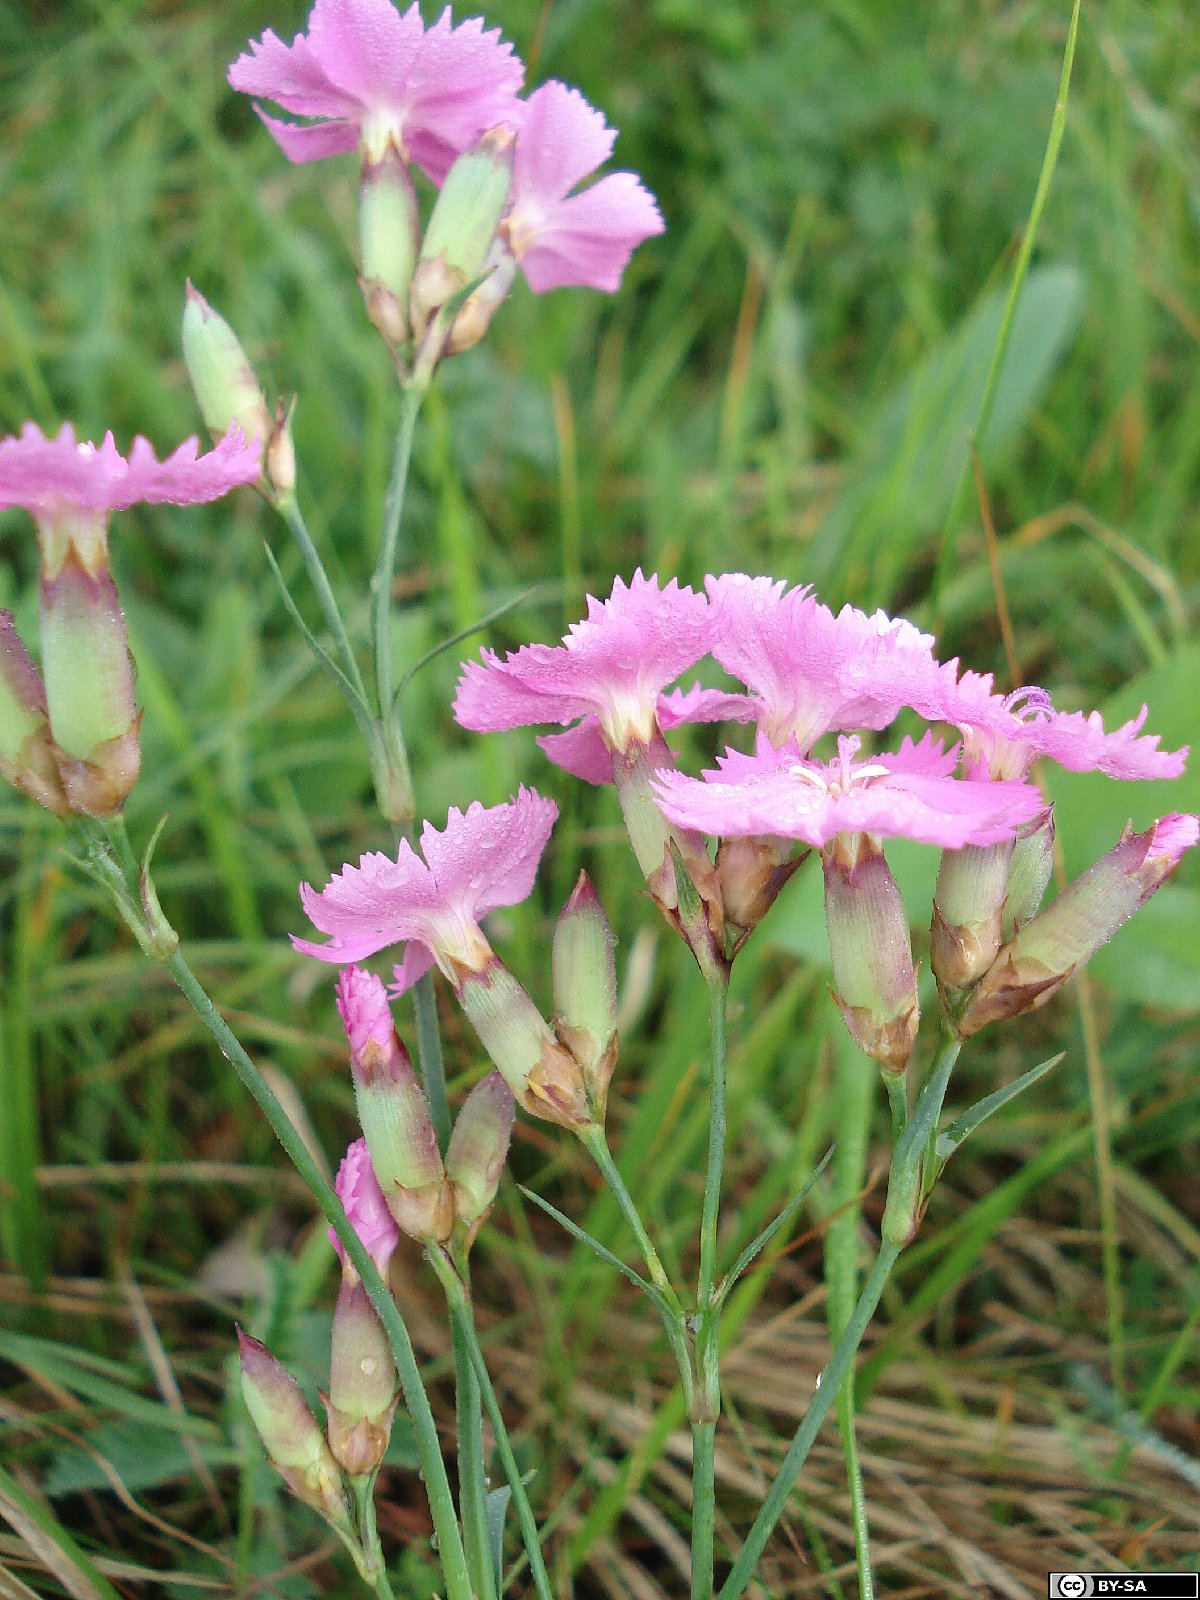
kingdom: Plantae
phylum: Tracheophyta
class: Magnoliopsida
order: Caryophyllales
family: Caryophyllaceae
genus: Dianthus
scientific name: Dianthus spurius
